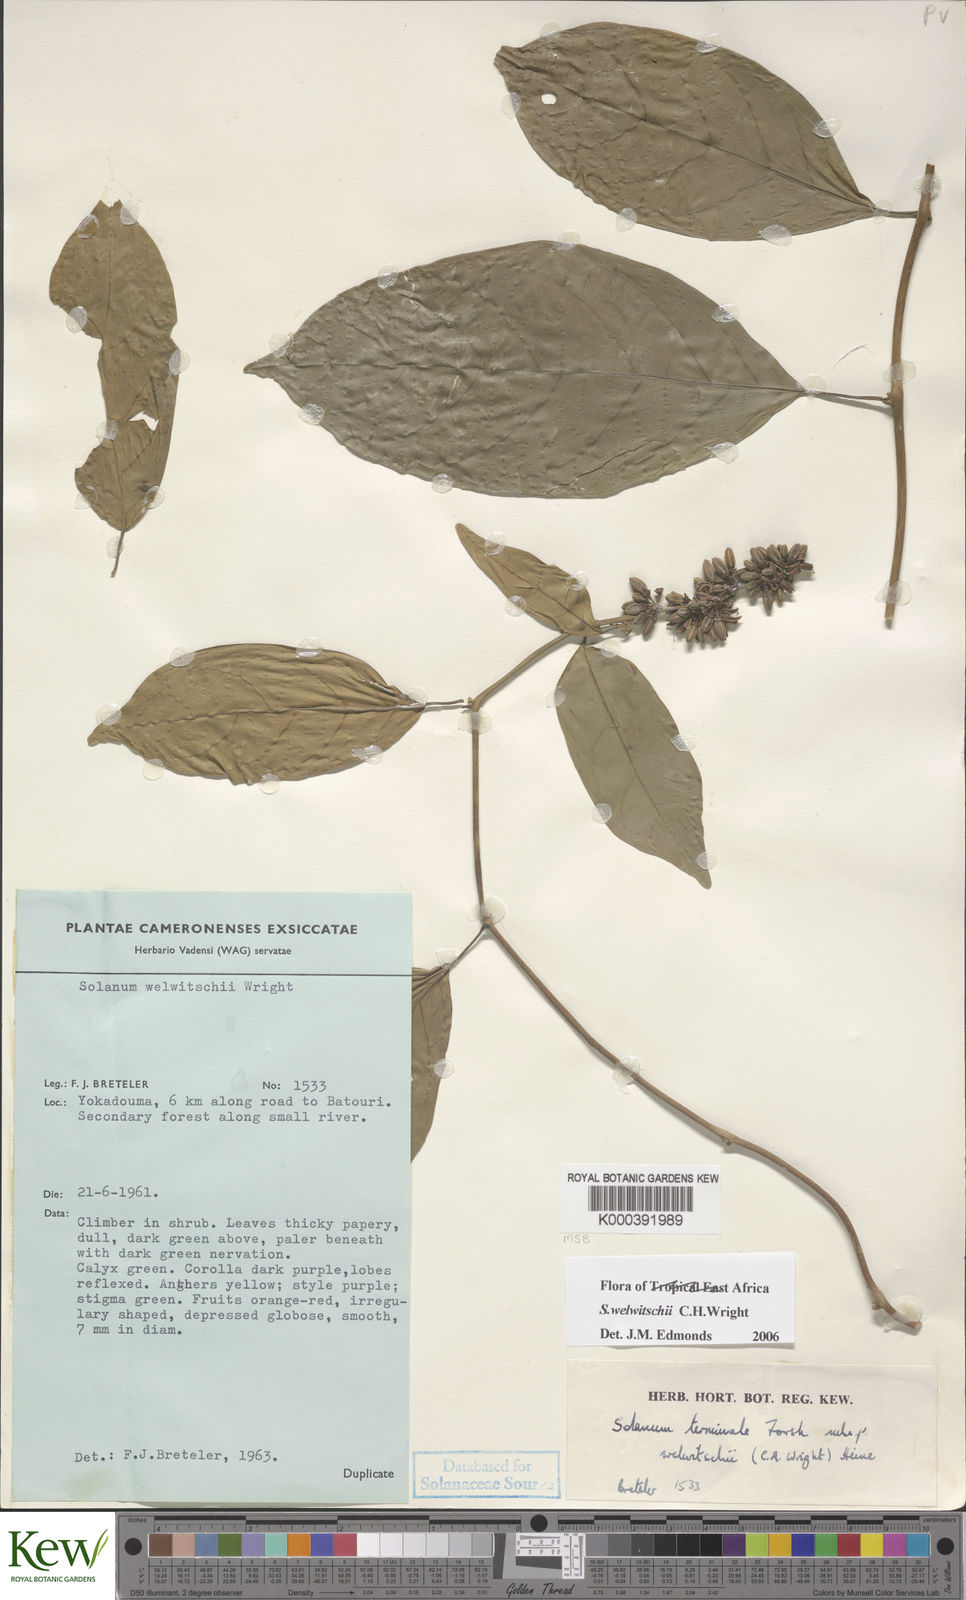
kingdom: Plantae
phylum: Tracheophyta
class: Magnoliopsida
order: Solanales
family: Solanaceae
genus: Solanum
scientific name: Solanum terminale
